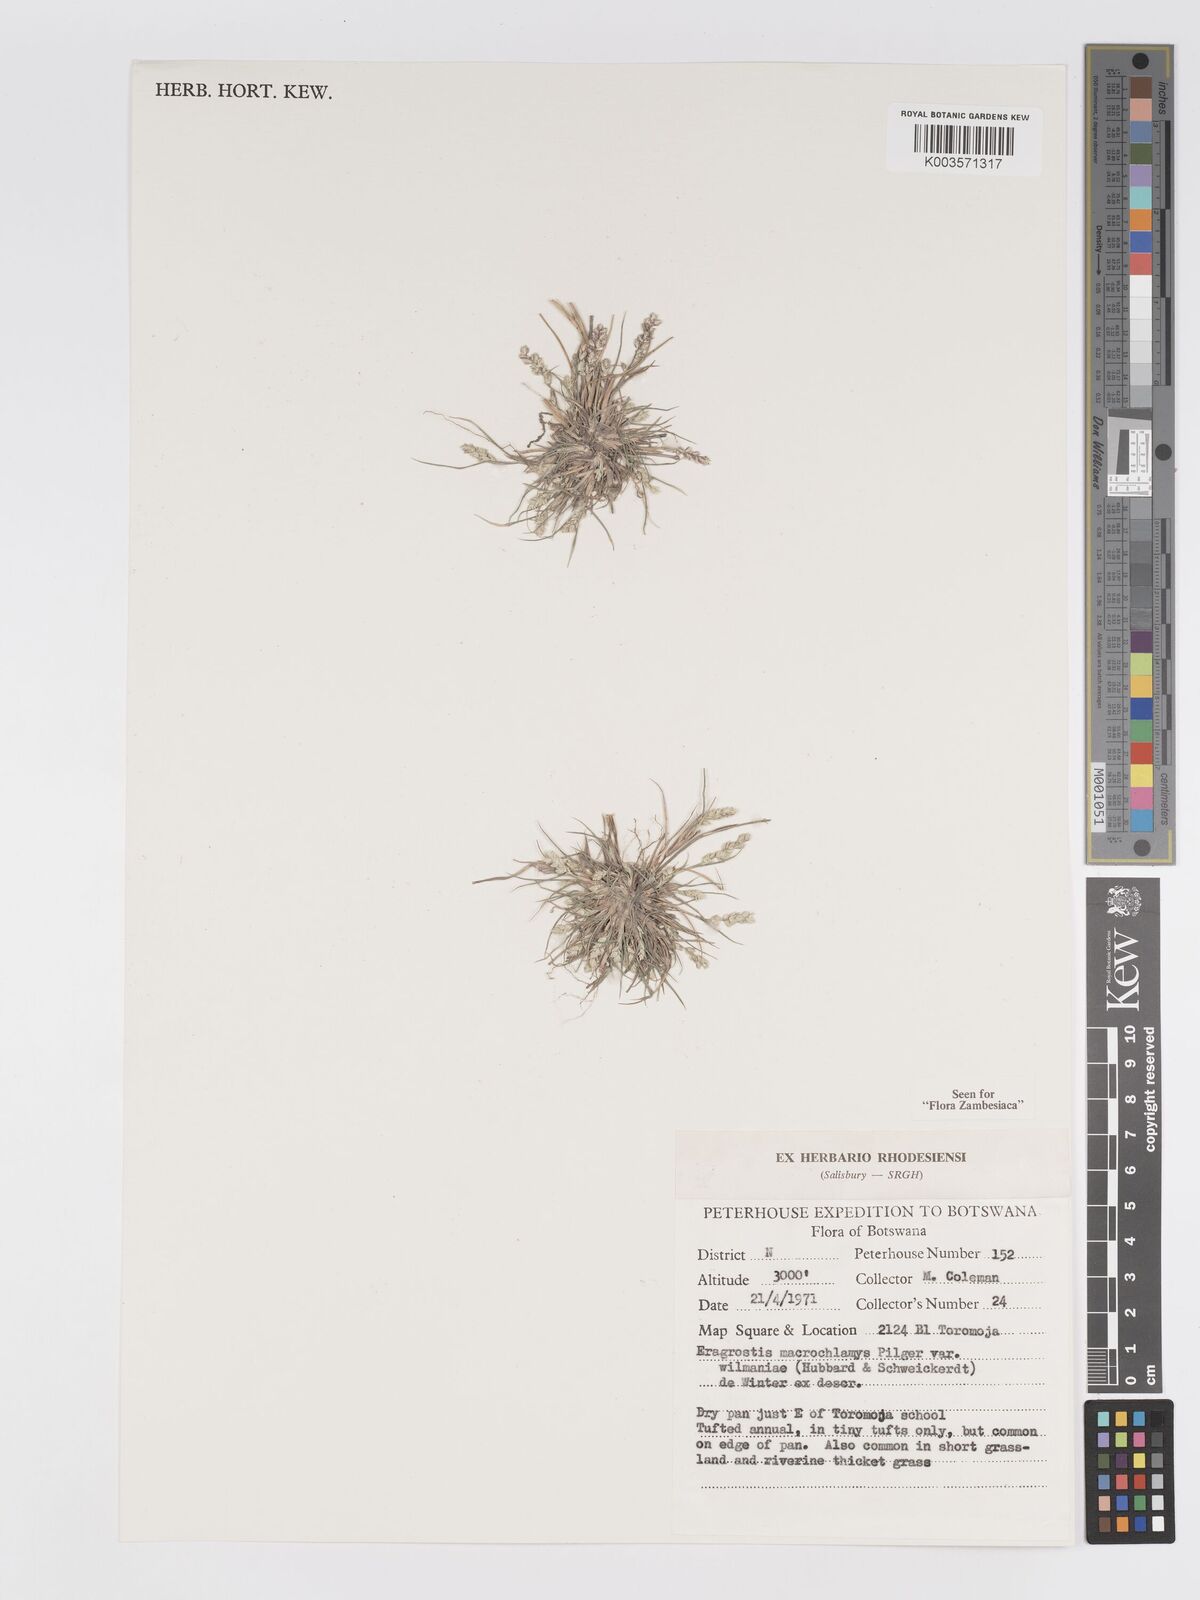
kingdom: Plantae
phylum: Tracheophyta
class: Liliopsida
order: Poales
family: Poaceae
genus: Eragrostis
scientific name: Eragrostis macrochlamys
